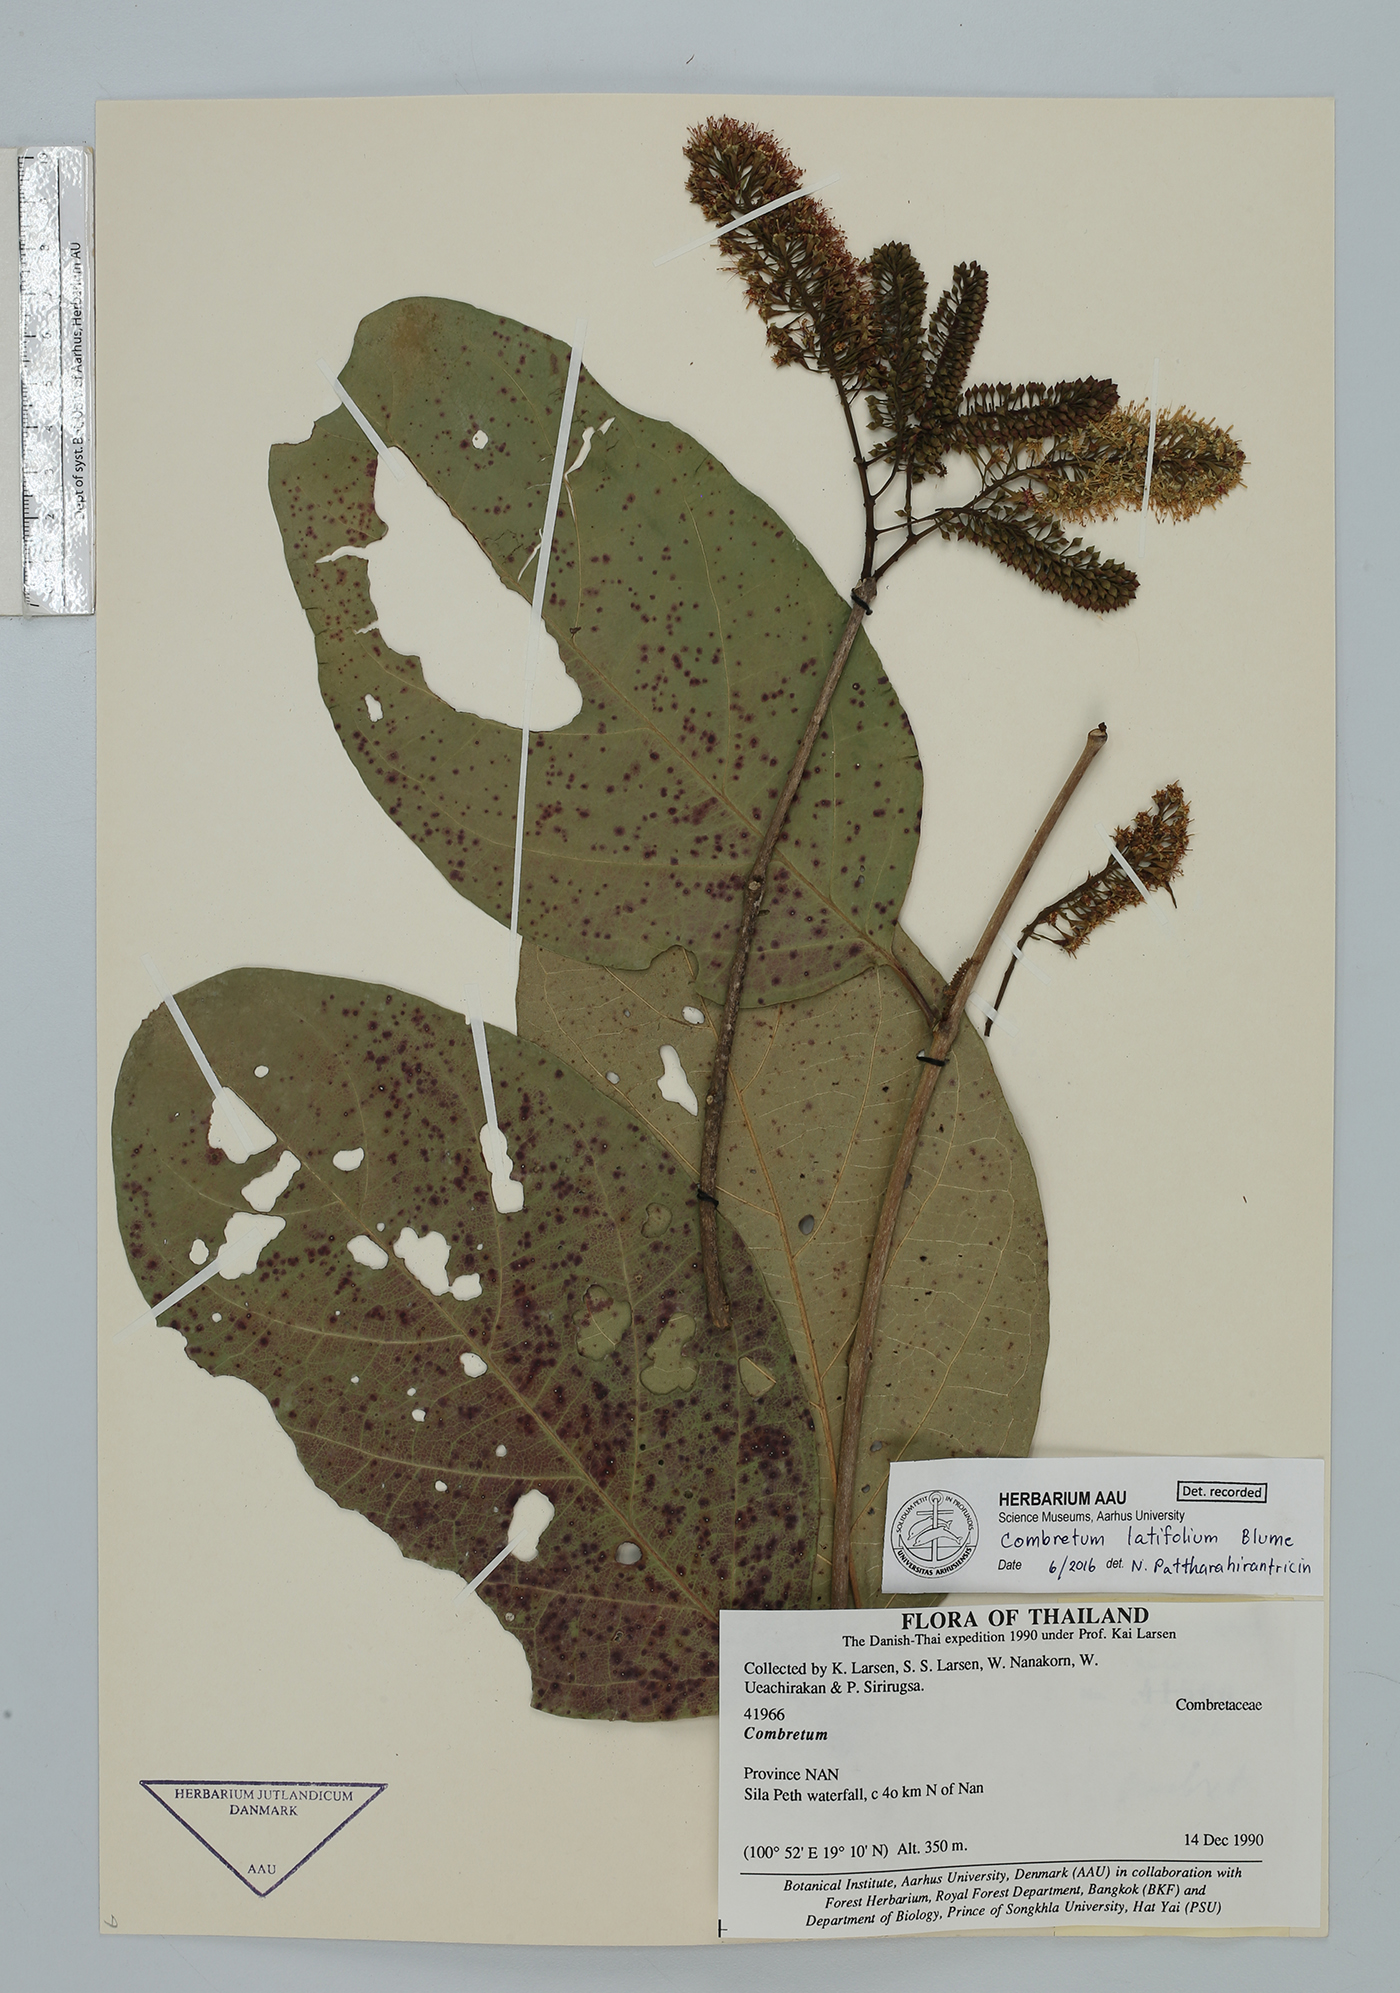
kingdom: Plantae
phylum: Tracheophyta
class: Magnoliopsida
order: Myrtales
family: Combretaceae
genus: Combretum
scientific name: Combretum latifolium
